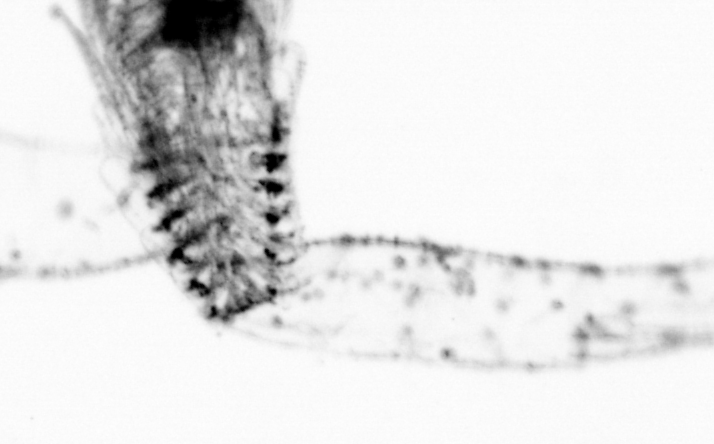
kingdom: Animalia
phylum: Chordata
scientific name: Chordata
